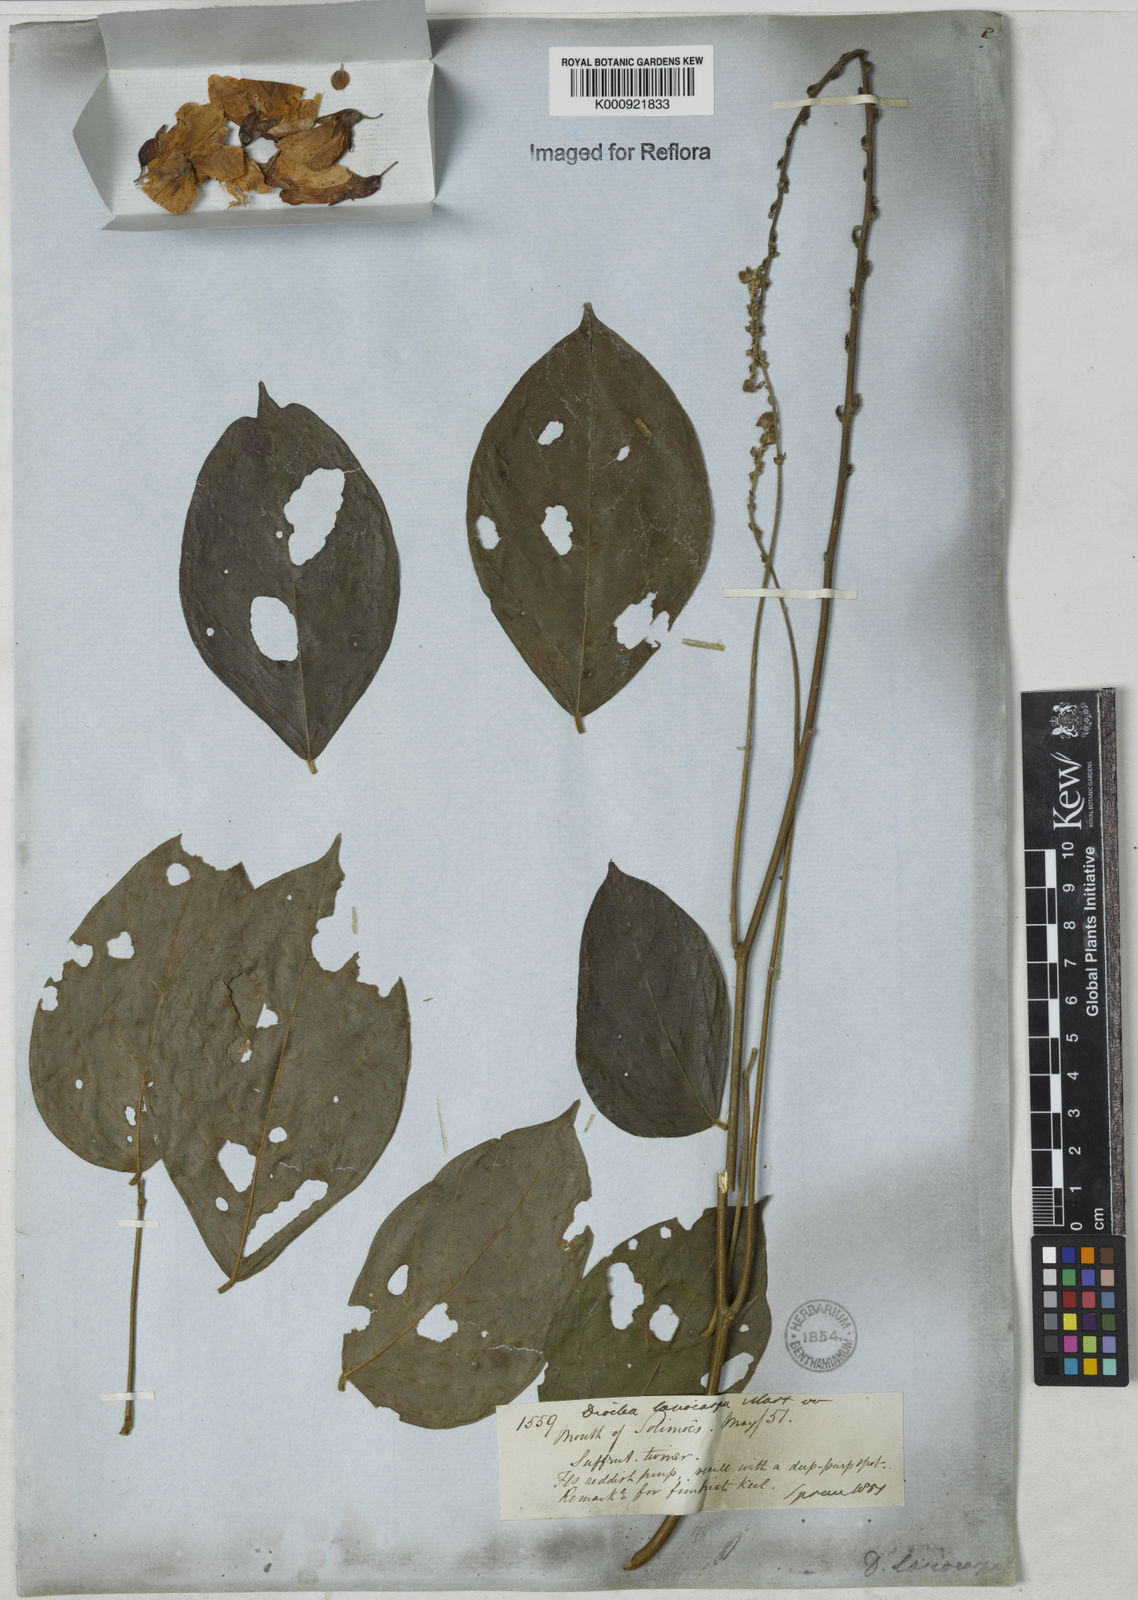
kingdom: Plantae
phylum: Tracheophyta
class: Magnoliopsida
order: Fabales
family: Fabaceae
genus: Dioclea
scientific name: Dioclea virgata
